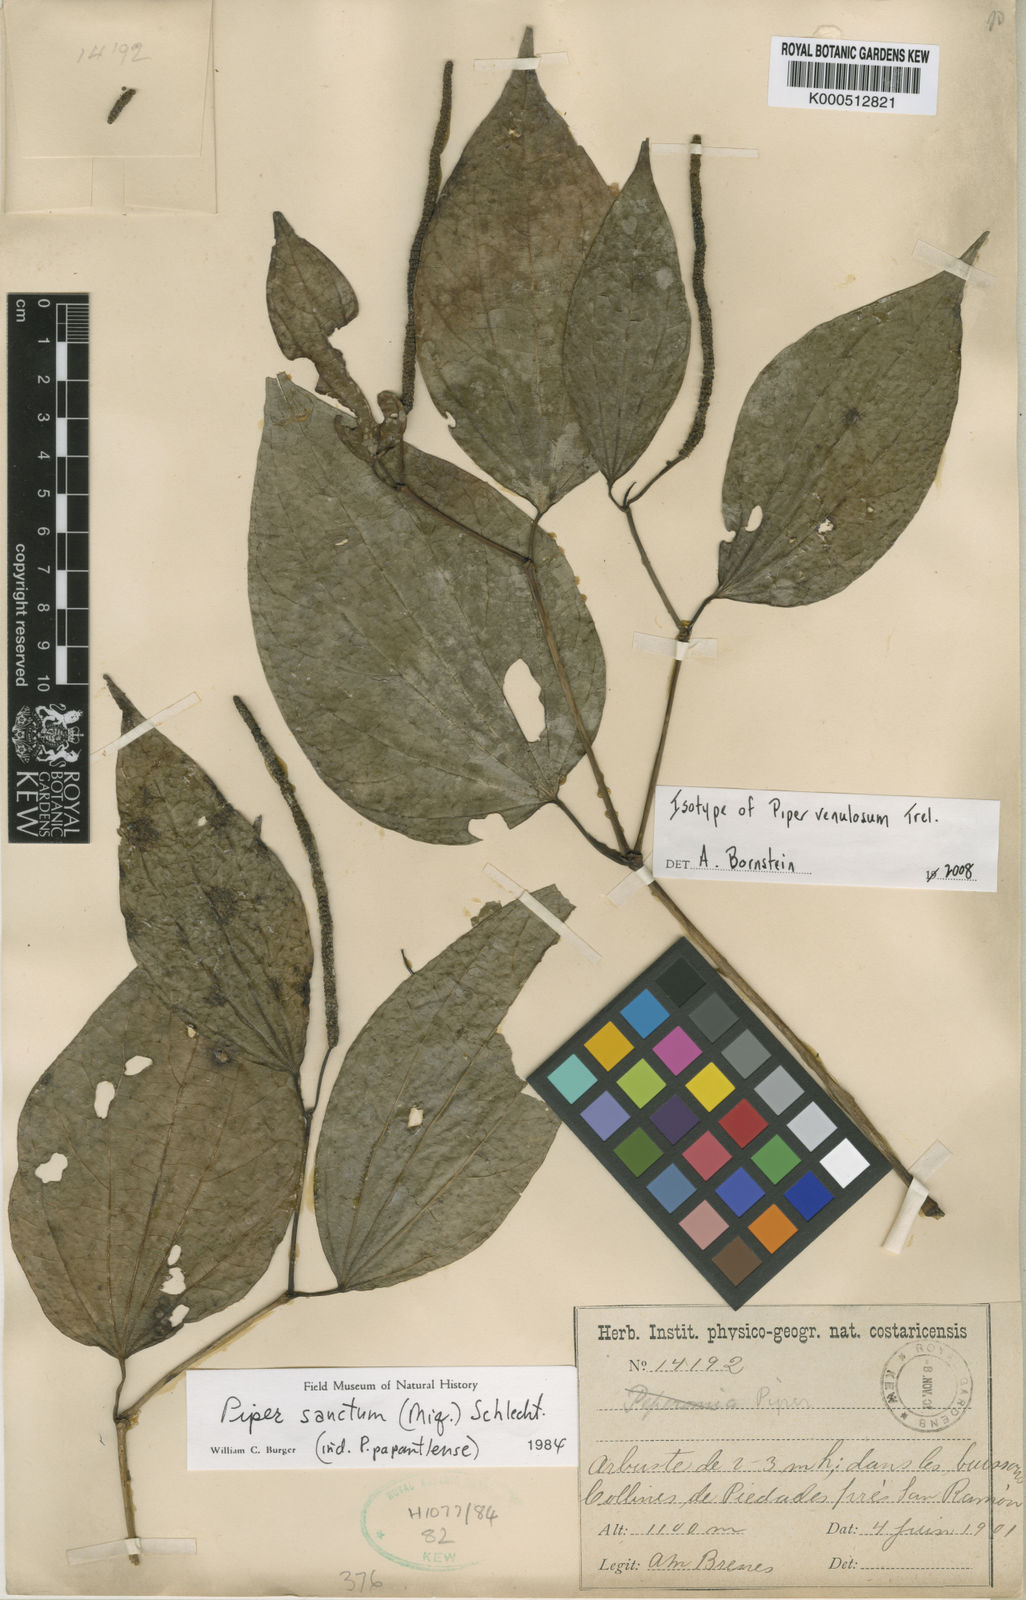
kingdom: Plantae
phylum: Tracheophyta
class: Magnoliopsida
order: Piperales
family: Piperaceae
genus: Piper
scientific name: Piper
